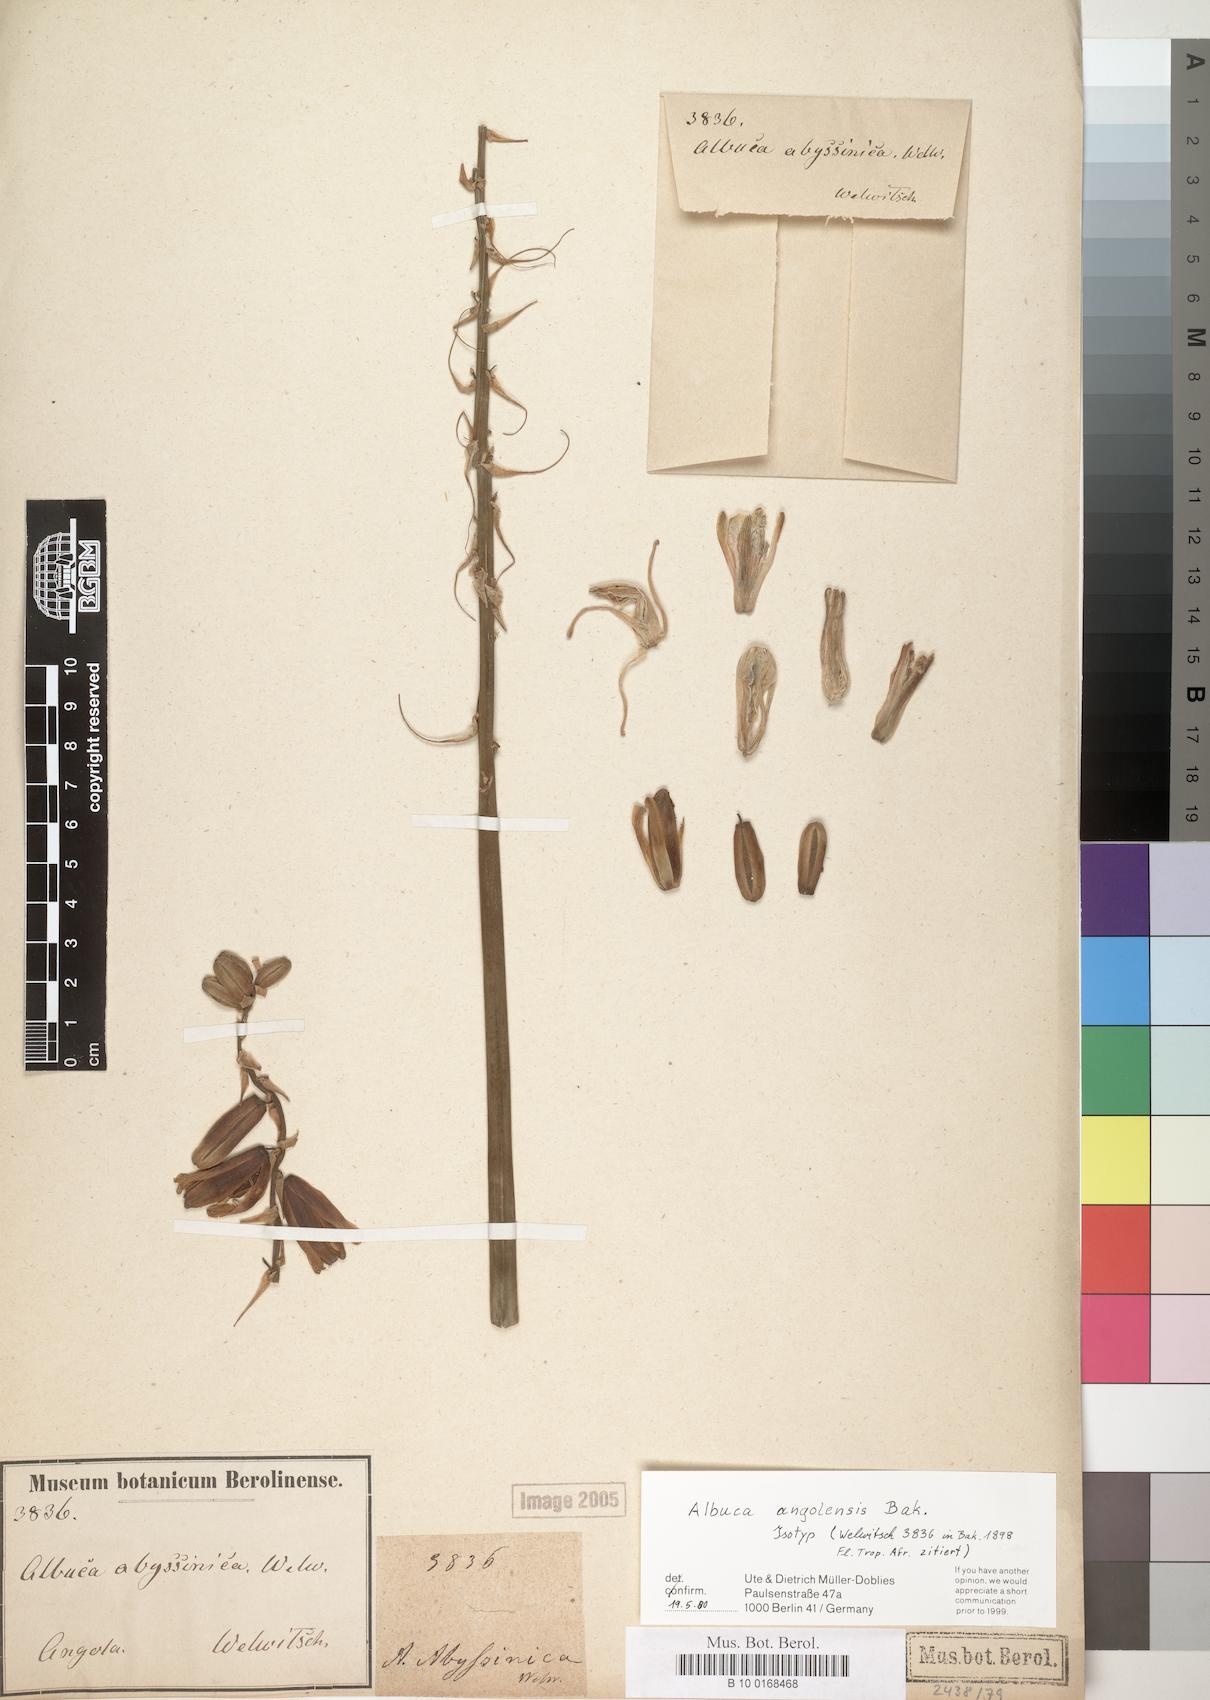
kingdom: Plantae
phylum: Tracheophyta
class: Liliopsida
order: Asparagales
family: Asparagaceae
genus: Albuca
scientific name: Albuca abyssinica
